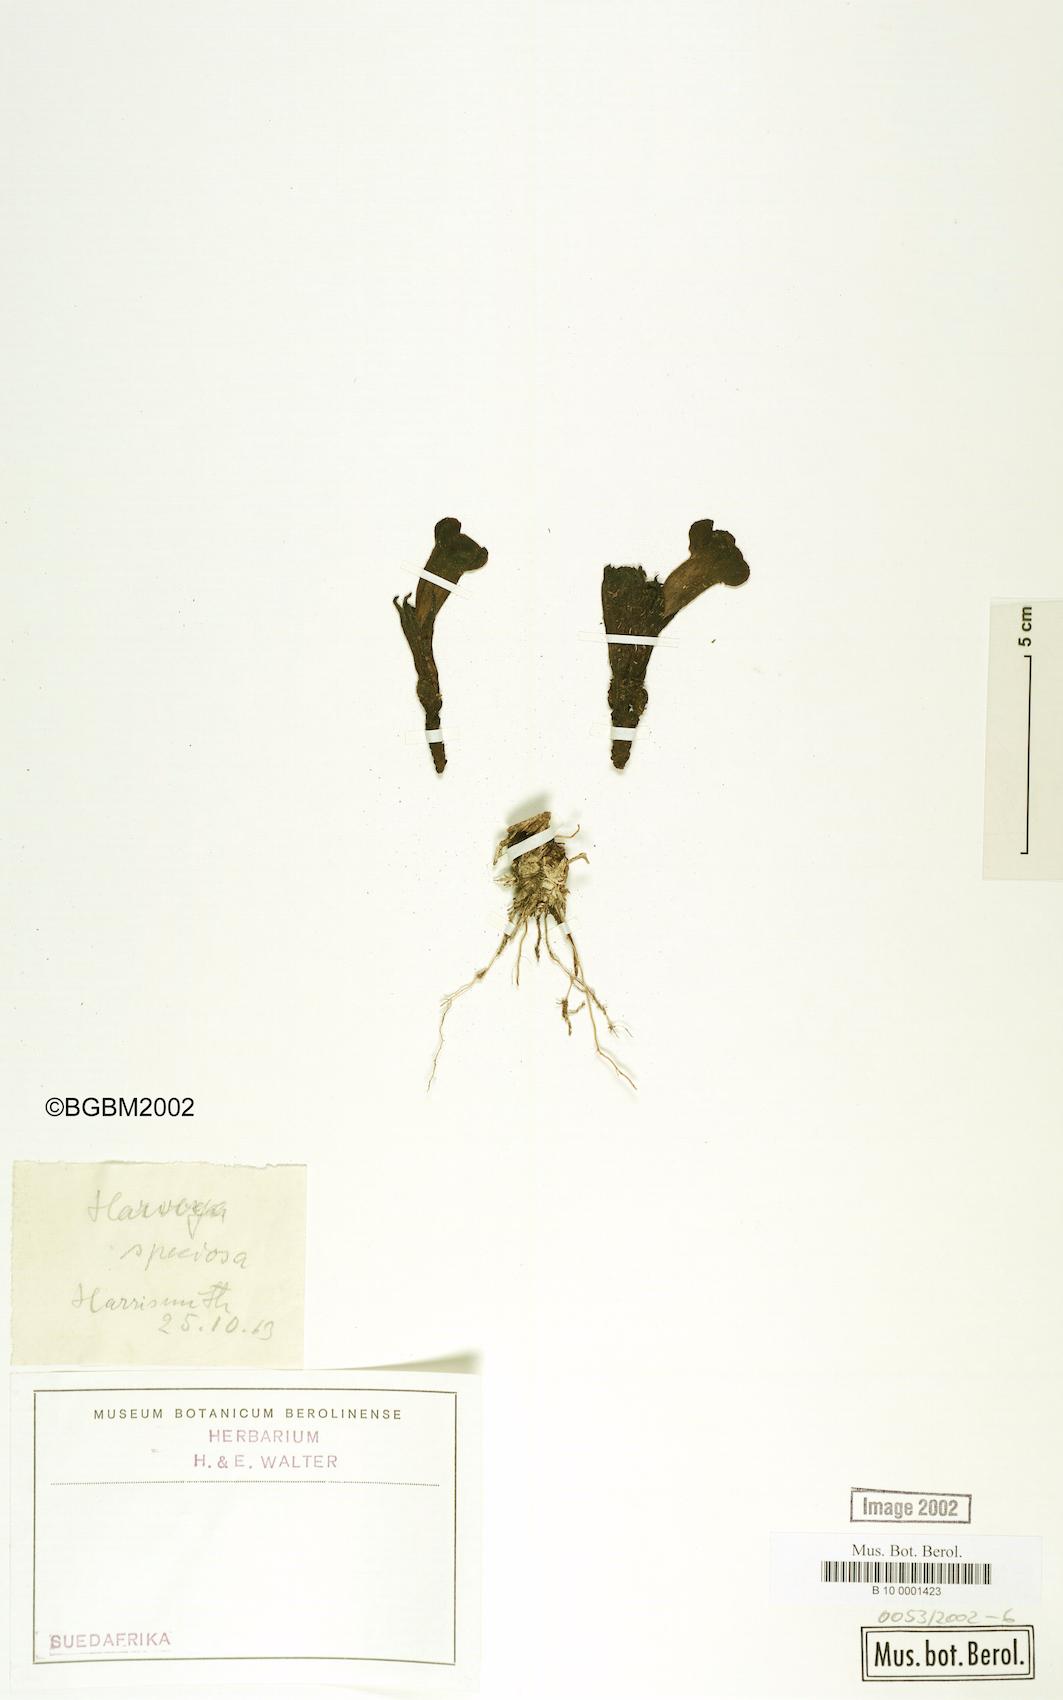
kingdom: Plantae
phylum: Tracheophyta
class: Magnoliopsida
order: Lamiales
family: Orobanchaceae
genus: Harveya
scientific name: Harveya speciosa
